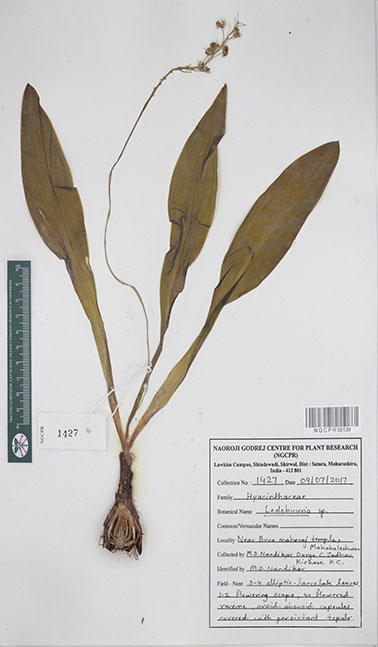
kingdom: Plantae
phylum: Tracheophyta
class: Liliopsida
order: Asparagales
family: Asparagaceae
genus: Ledebouria
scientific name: Ledebouria
